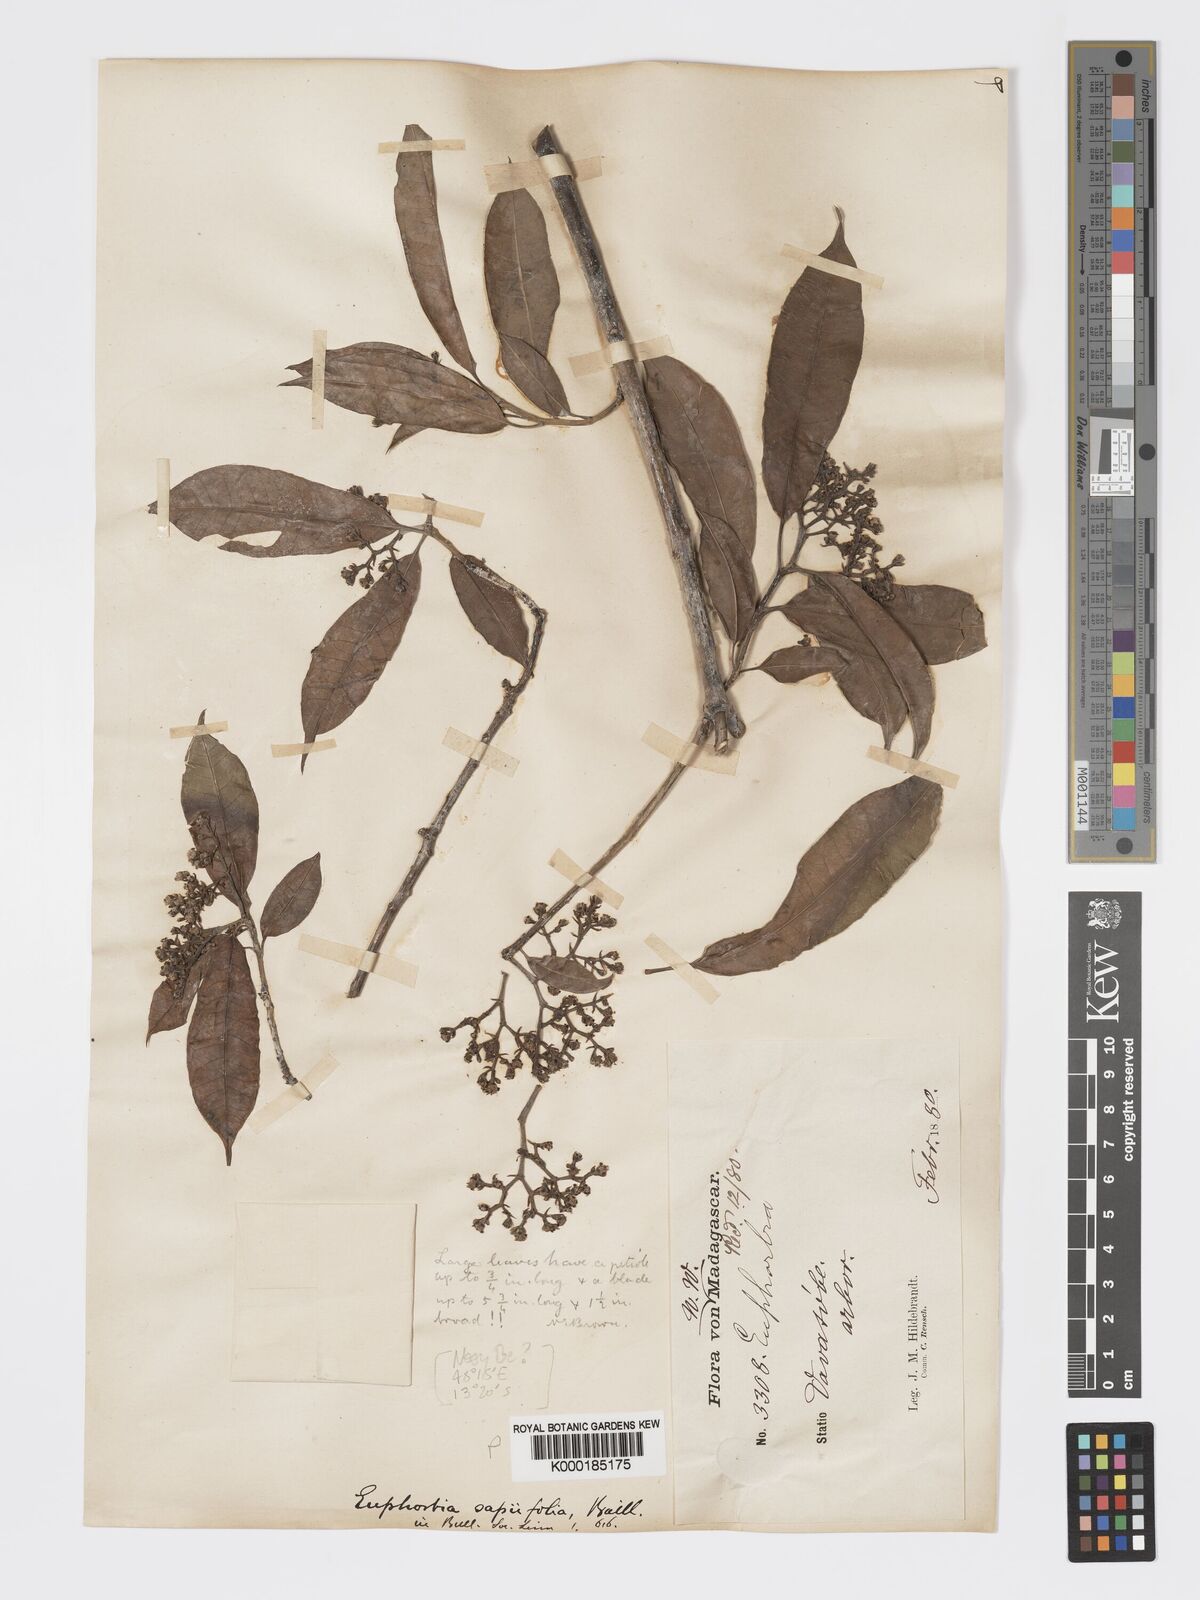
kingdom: Plantae
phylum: Tracheophyta
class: Magnoliopsida
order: Malpighiales
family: Euphorbiaceae
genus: Euphorbia
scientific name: Euphorbia adenopoda
